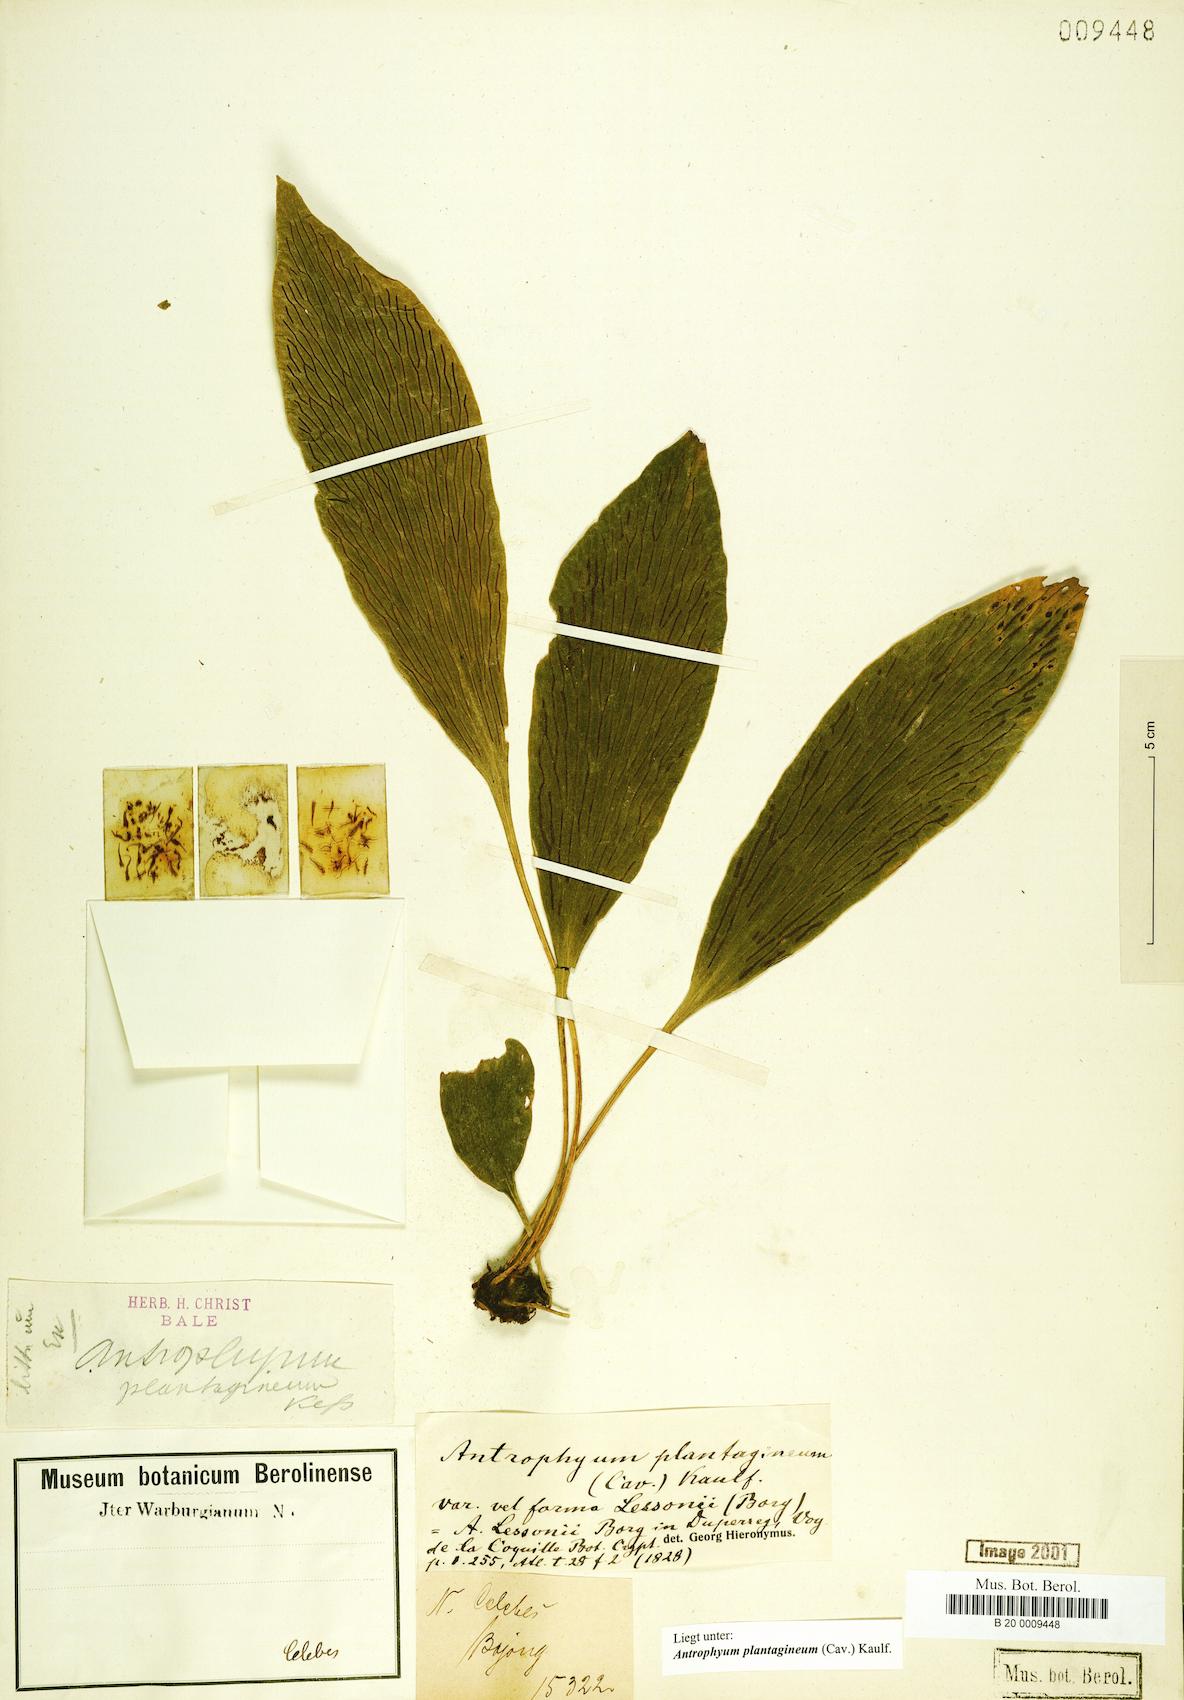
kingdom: Plantae
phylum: Tracheophyta
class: Polypodiopsida
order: Polypodiales
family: Pteridaceae
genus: Antrophyum
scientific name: Antrophyum plantagineum
